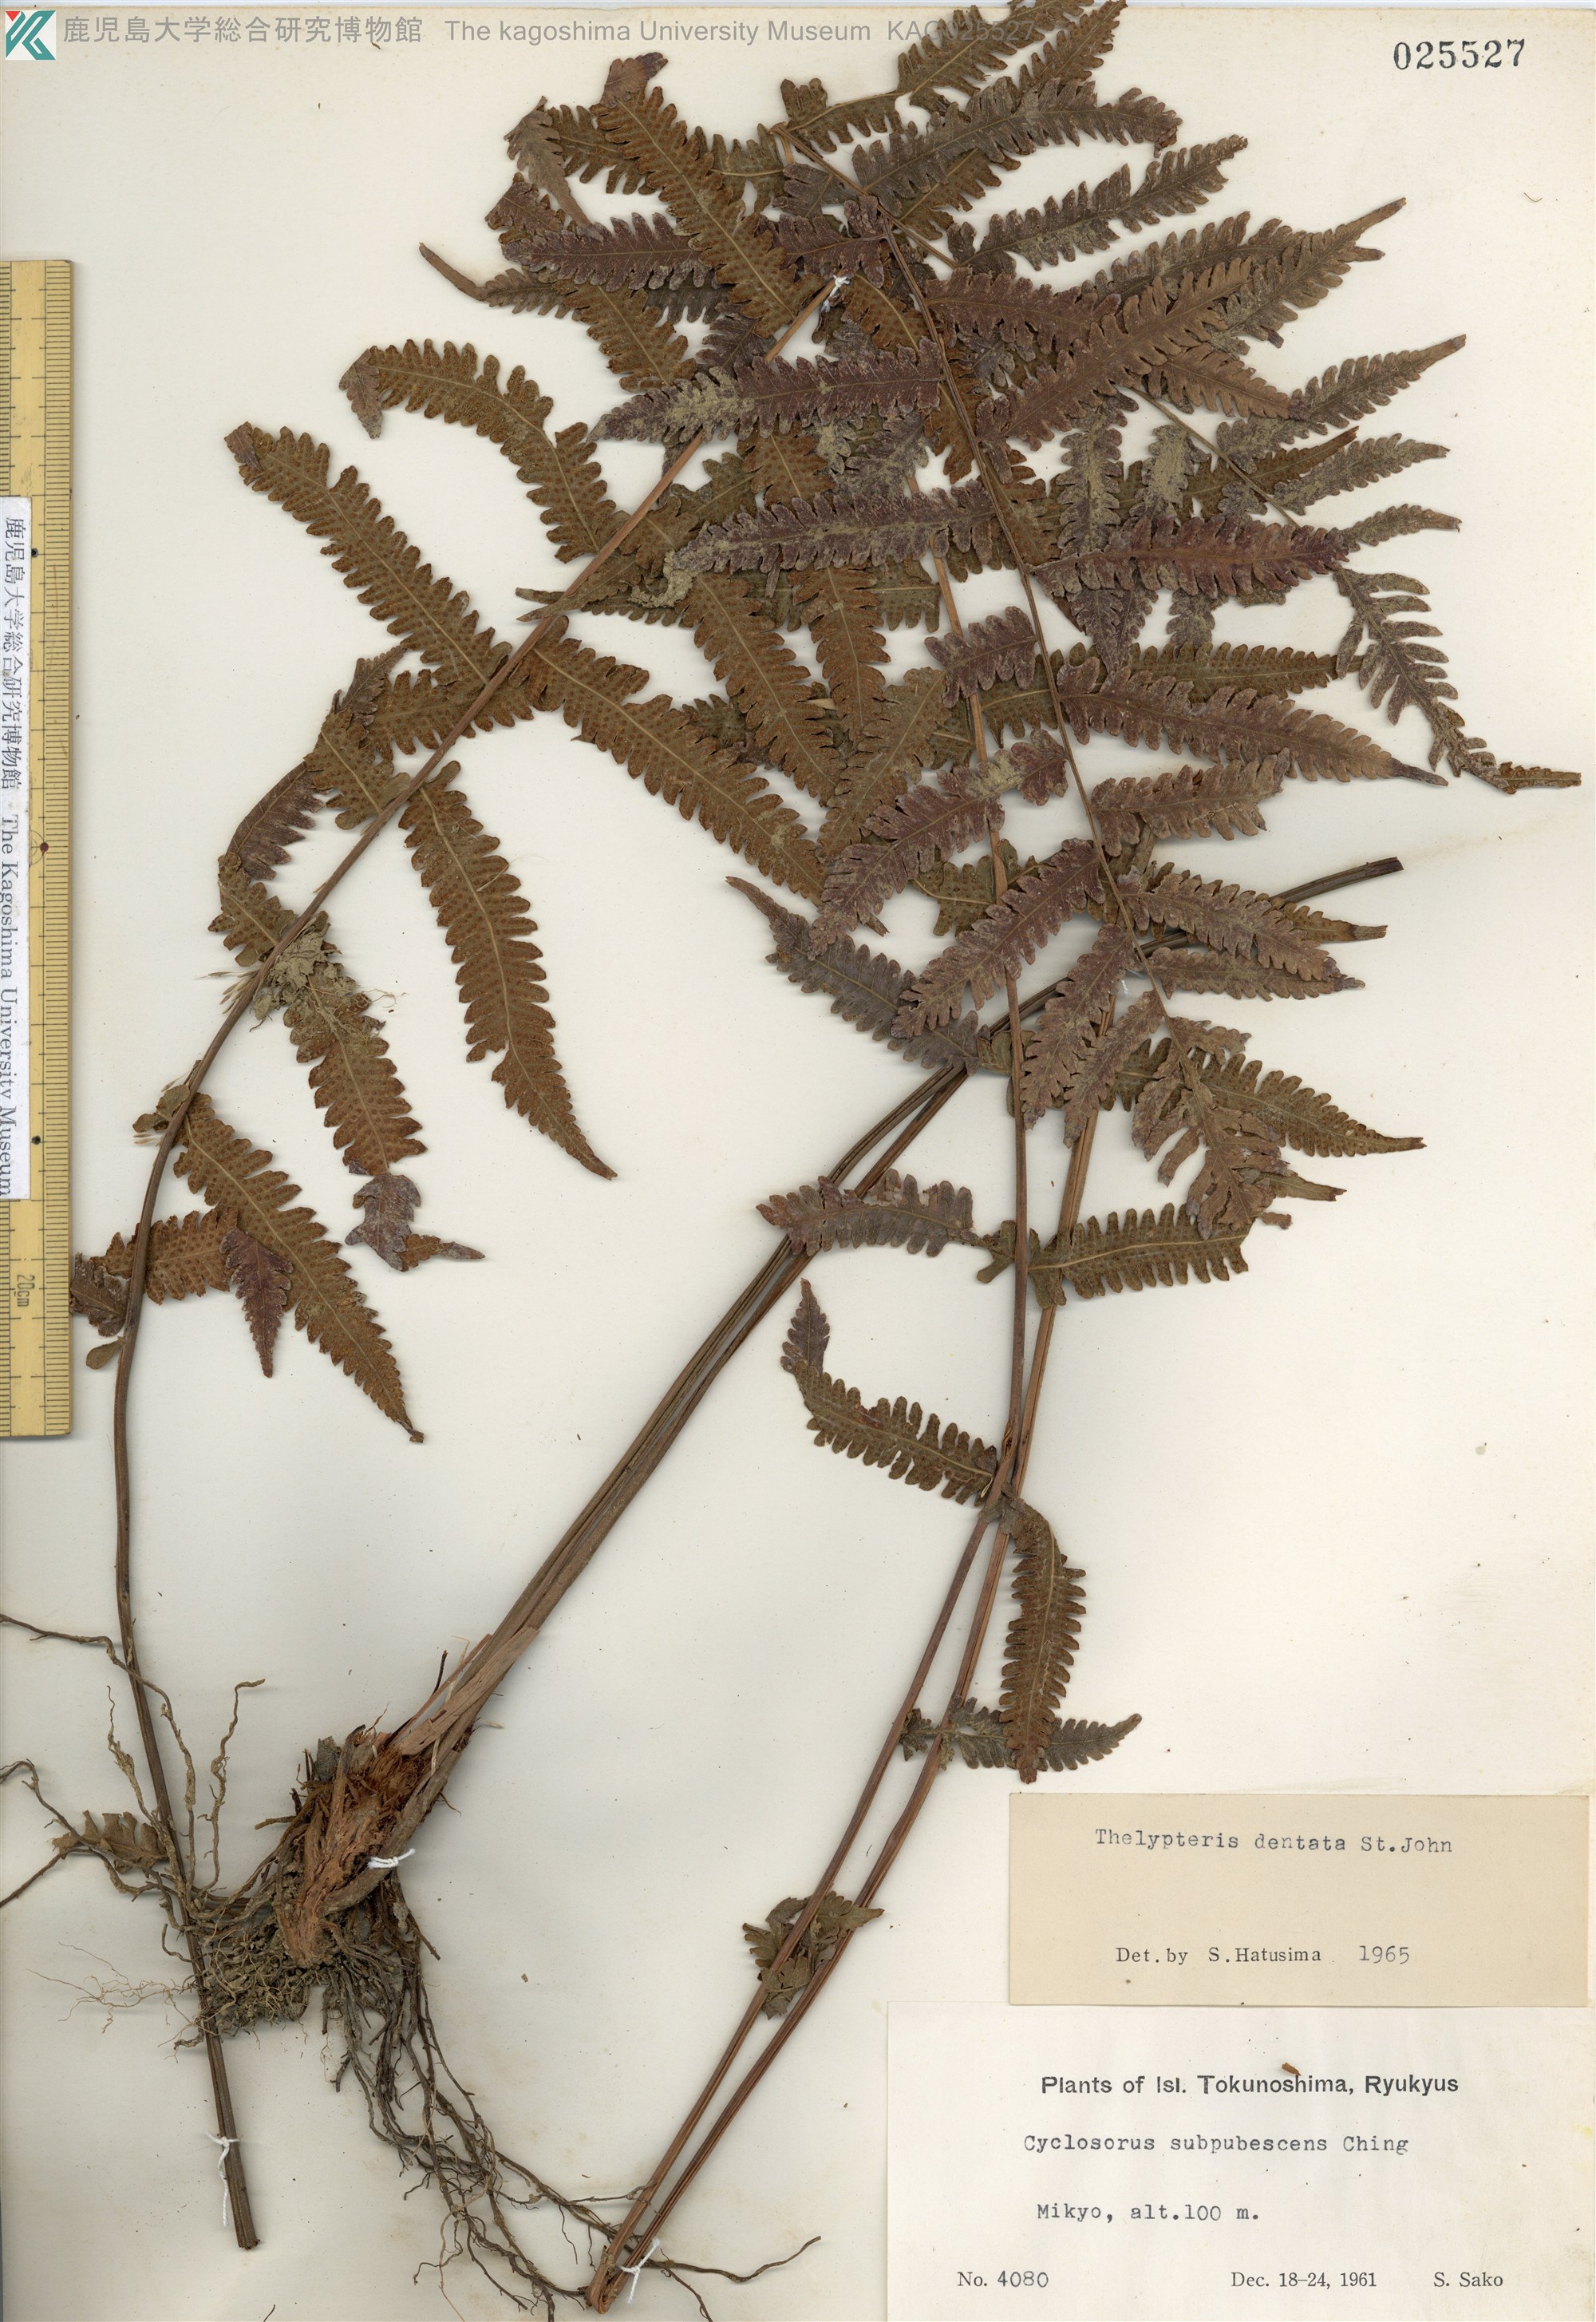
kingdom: Plantae
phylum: Tracheophyta
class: Polypodiopsida
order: Polypodiales
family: Thelypteridaceae
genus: Christella
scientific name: Christella dentata
